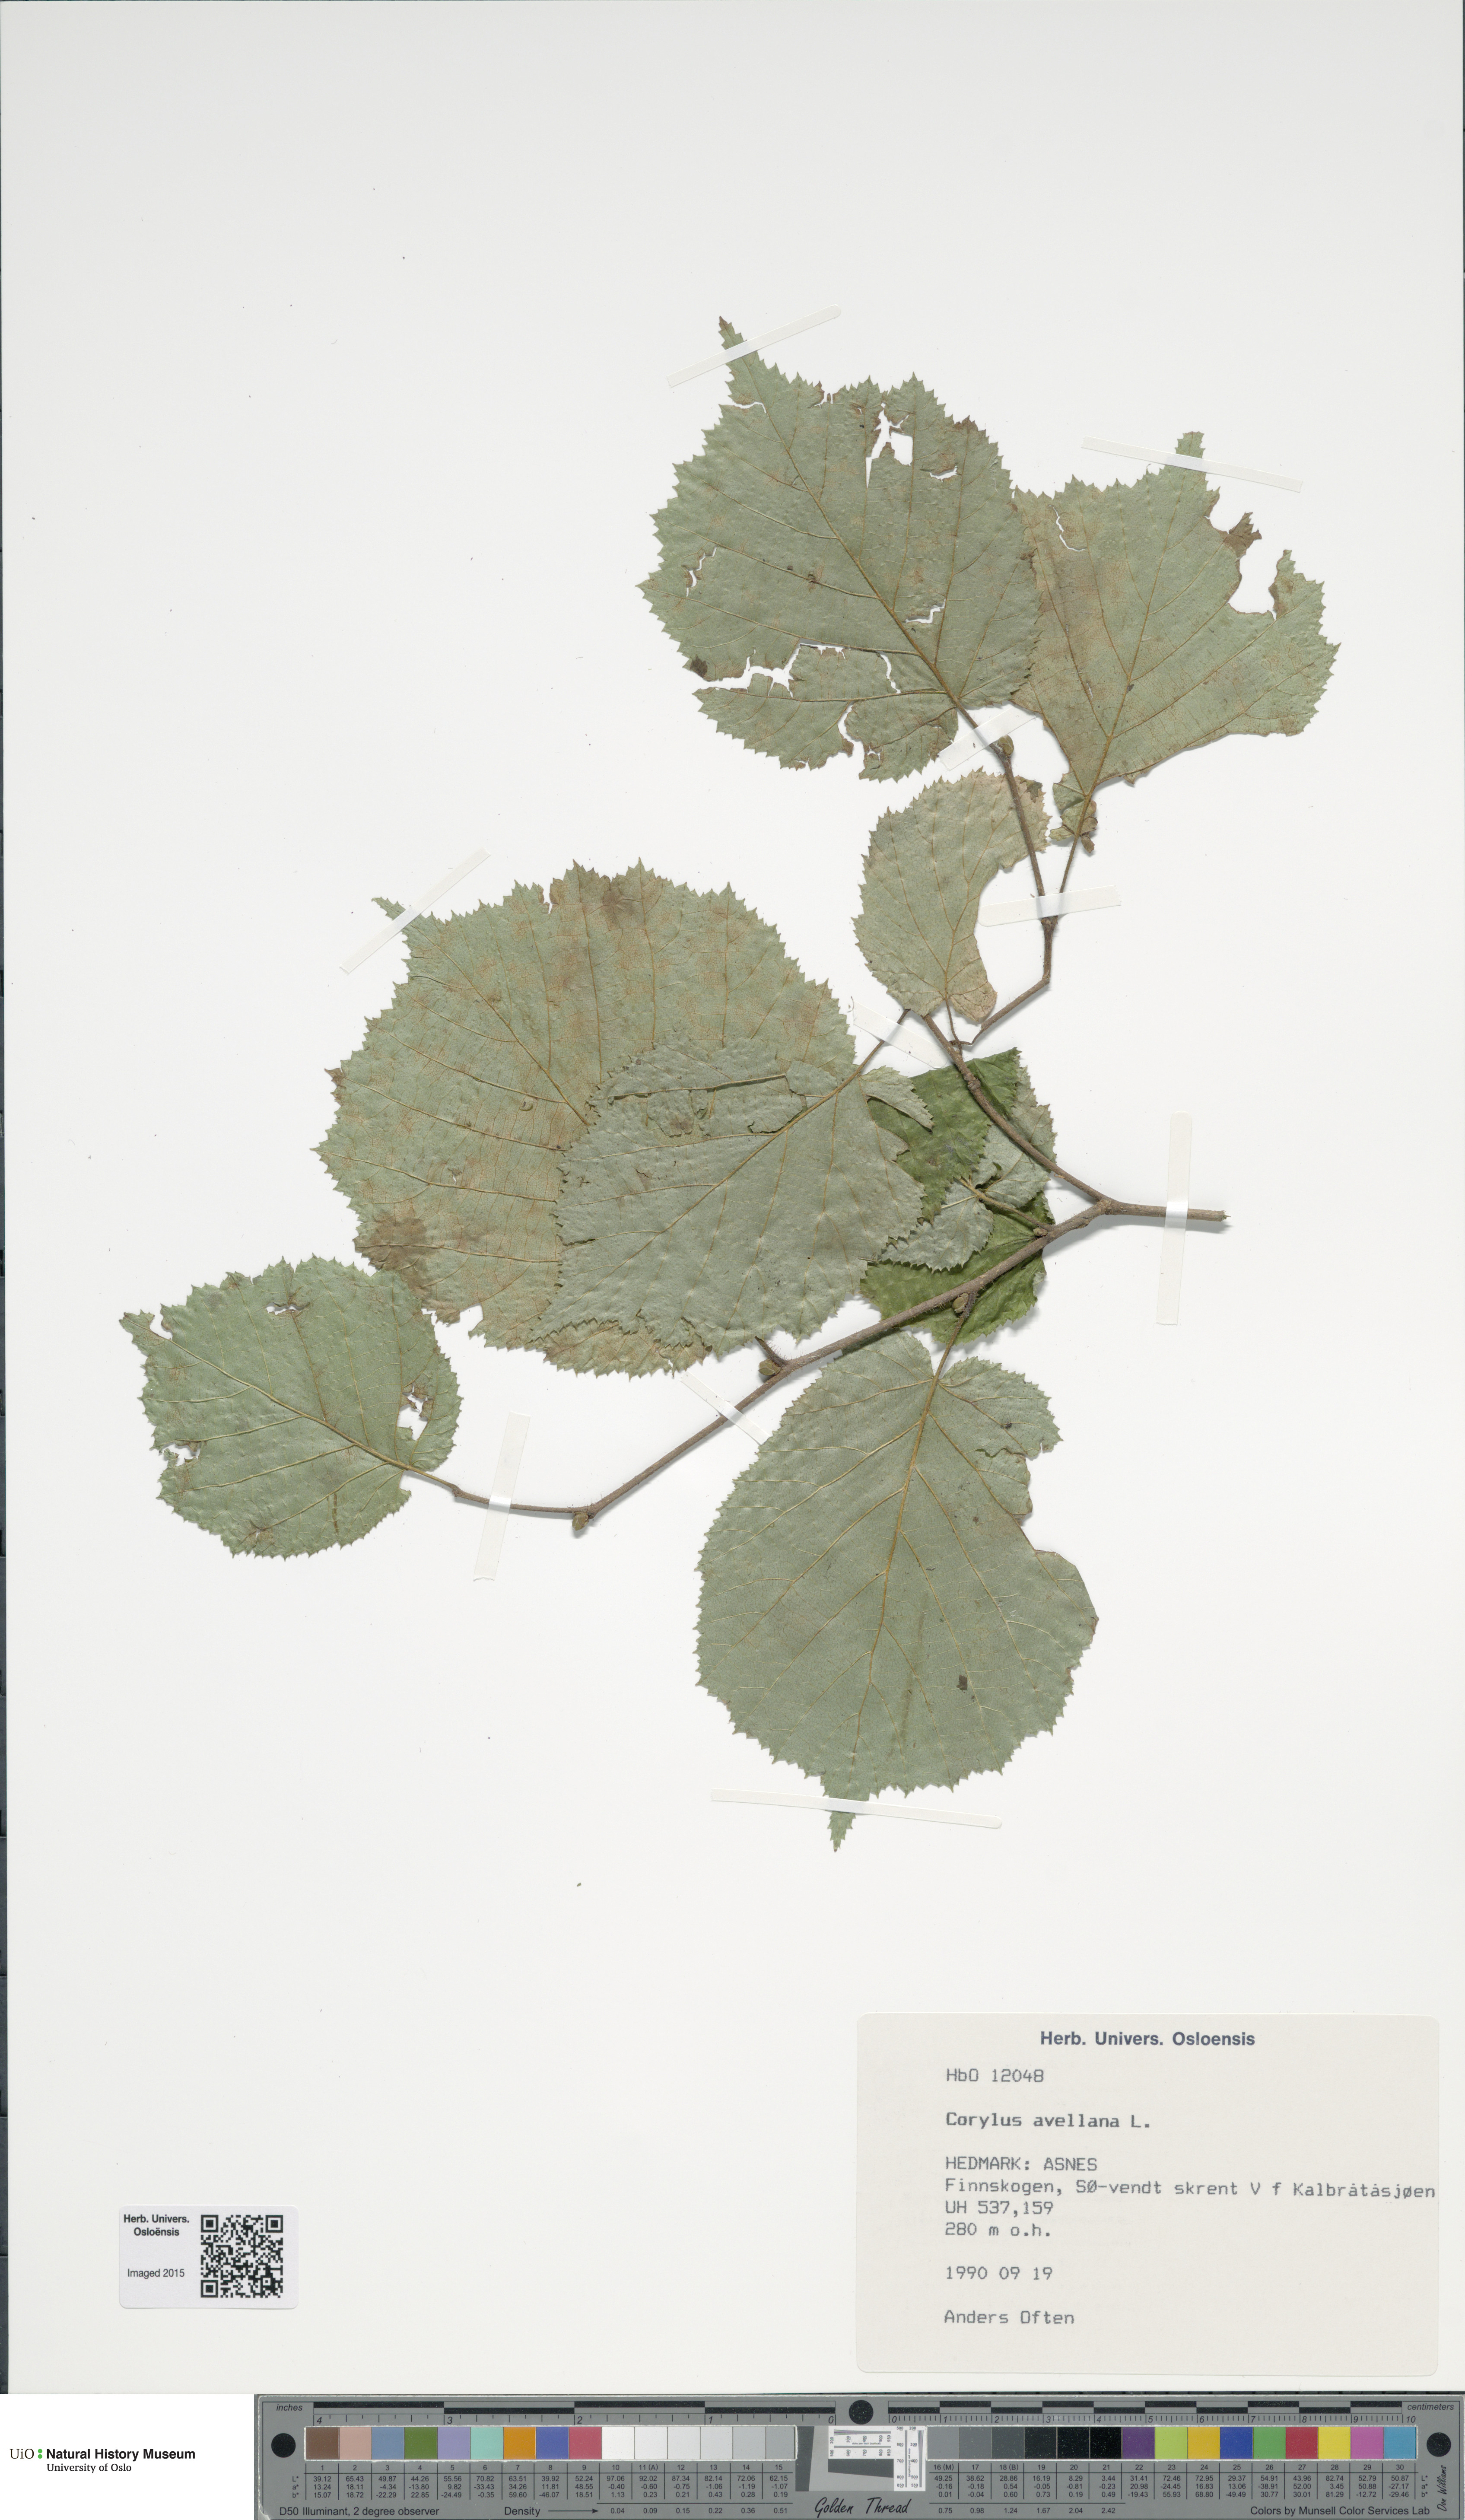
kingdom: Plantae
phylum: Tracheophyta
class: Magnoliopsida
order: Fagales
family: Betulaceae
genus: Corylus
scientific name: Corylus avellana
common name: European hazel
